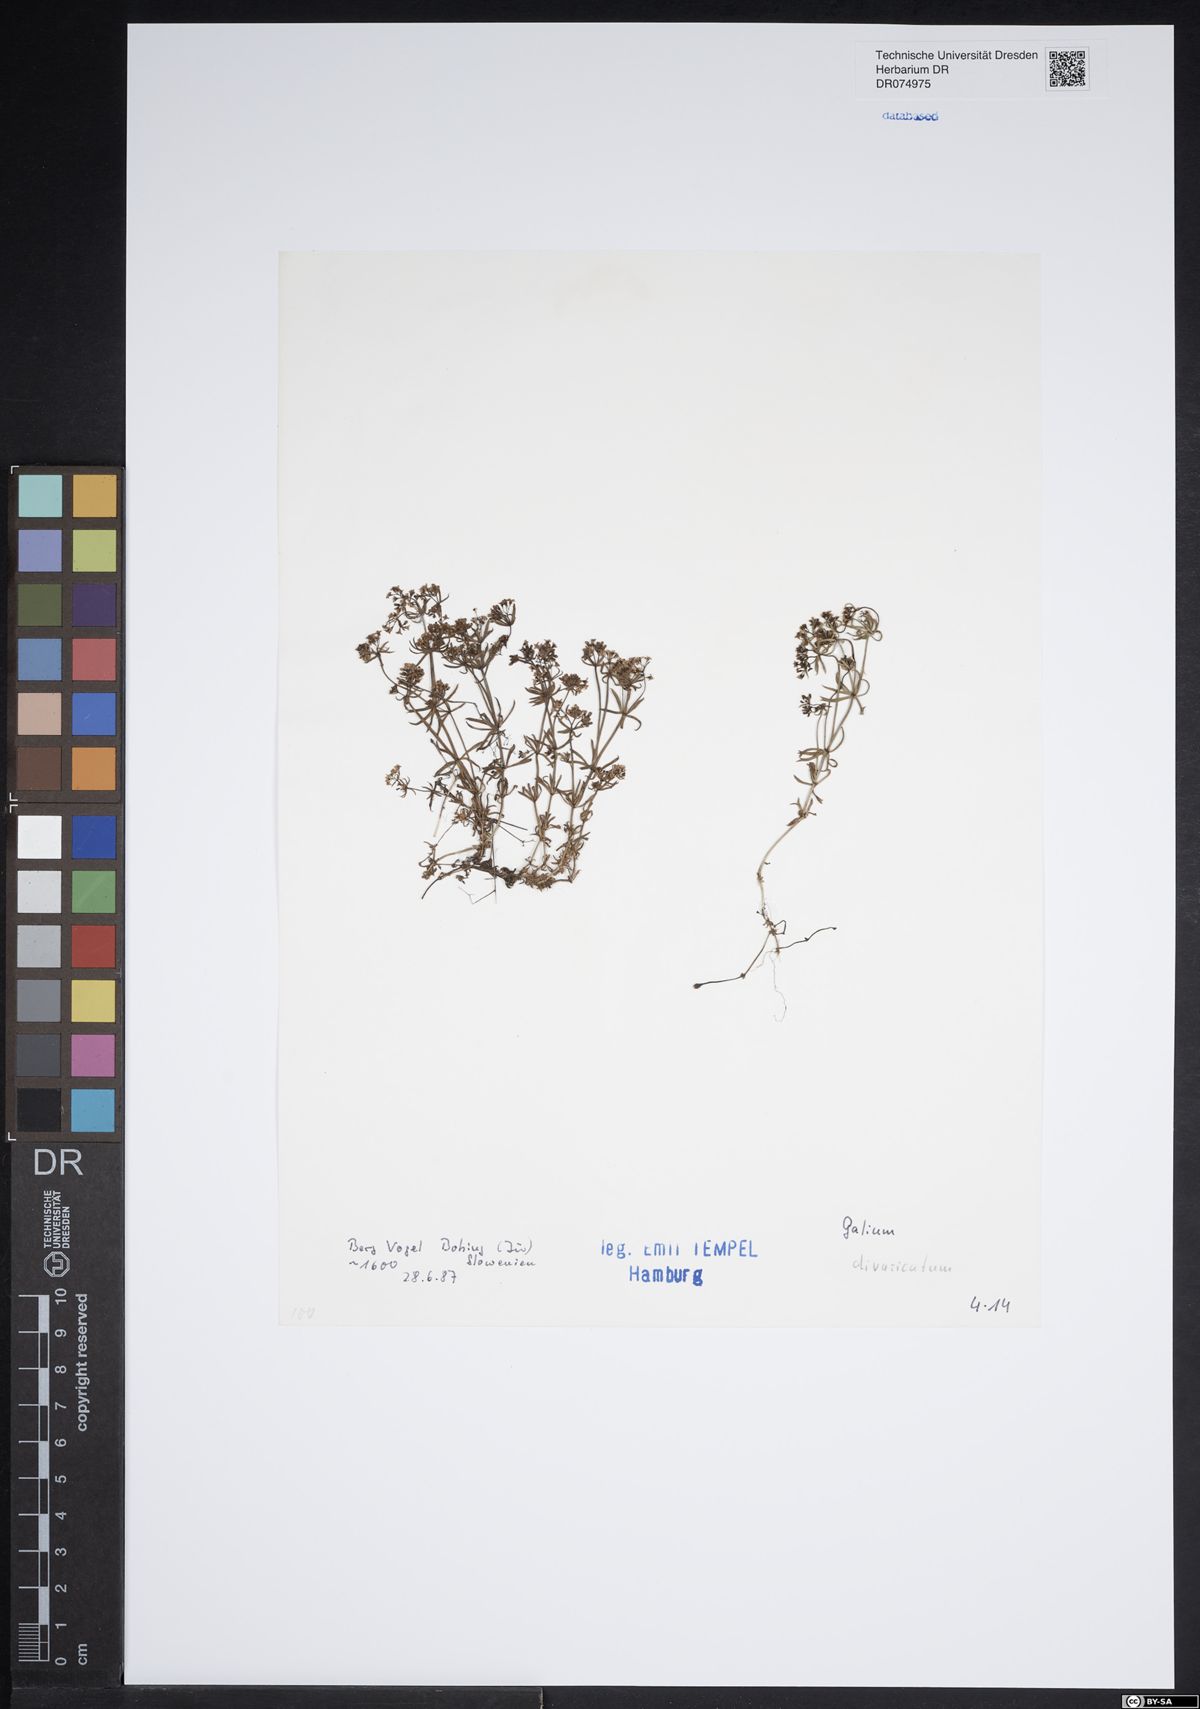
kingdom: Plantae
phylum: Tracheophyta
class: Magnoliopsida
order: Gentianales
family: Rubiaceae
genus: Galium
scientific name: Galium divaricatum
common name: Lamarck's bedstraw
